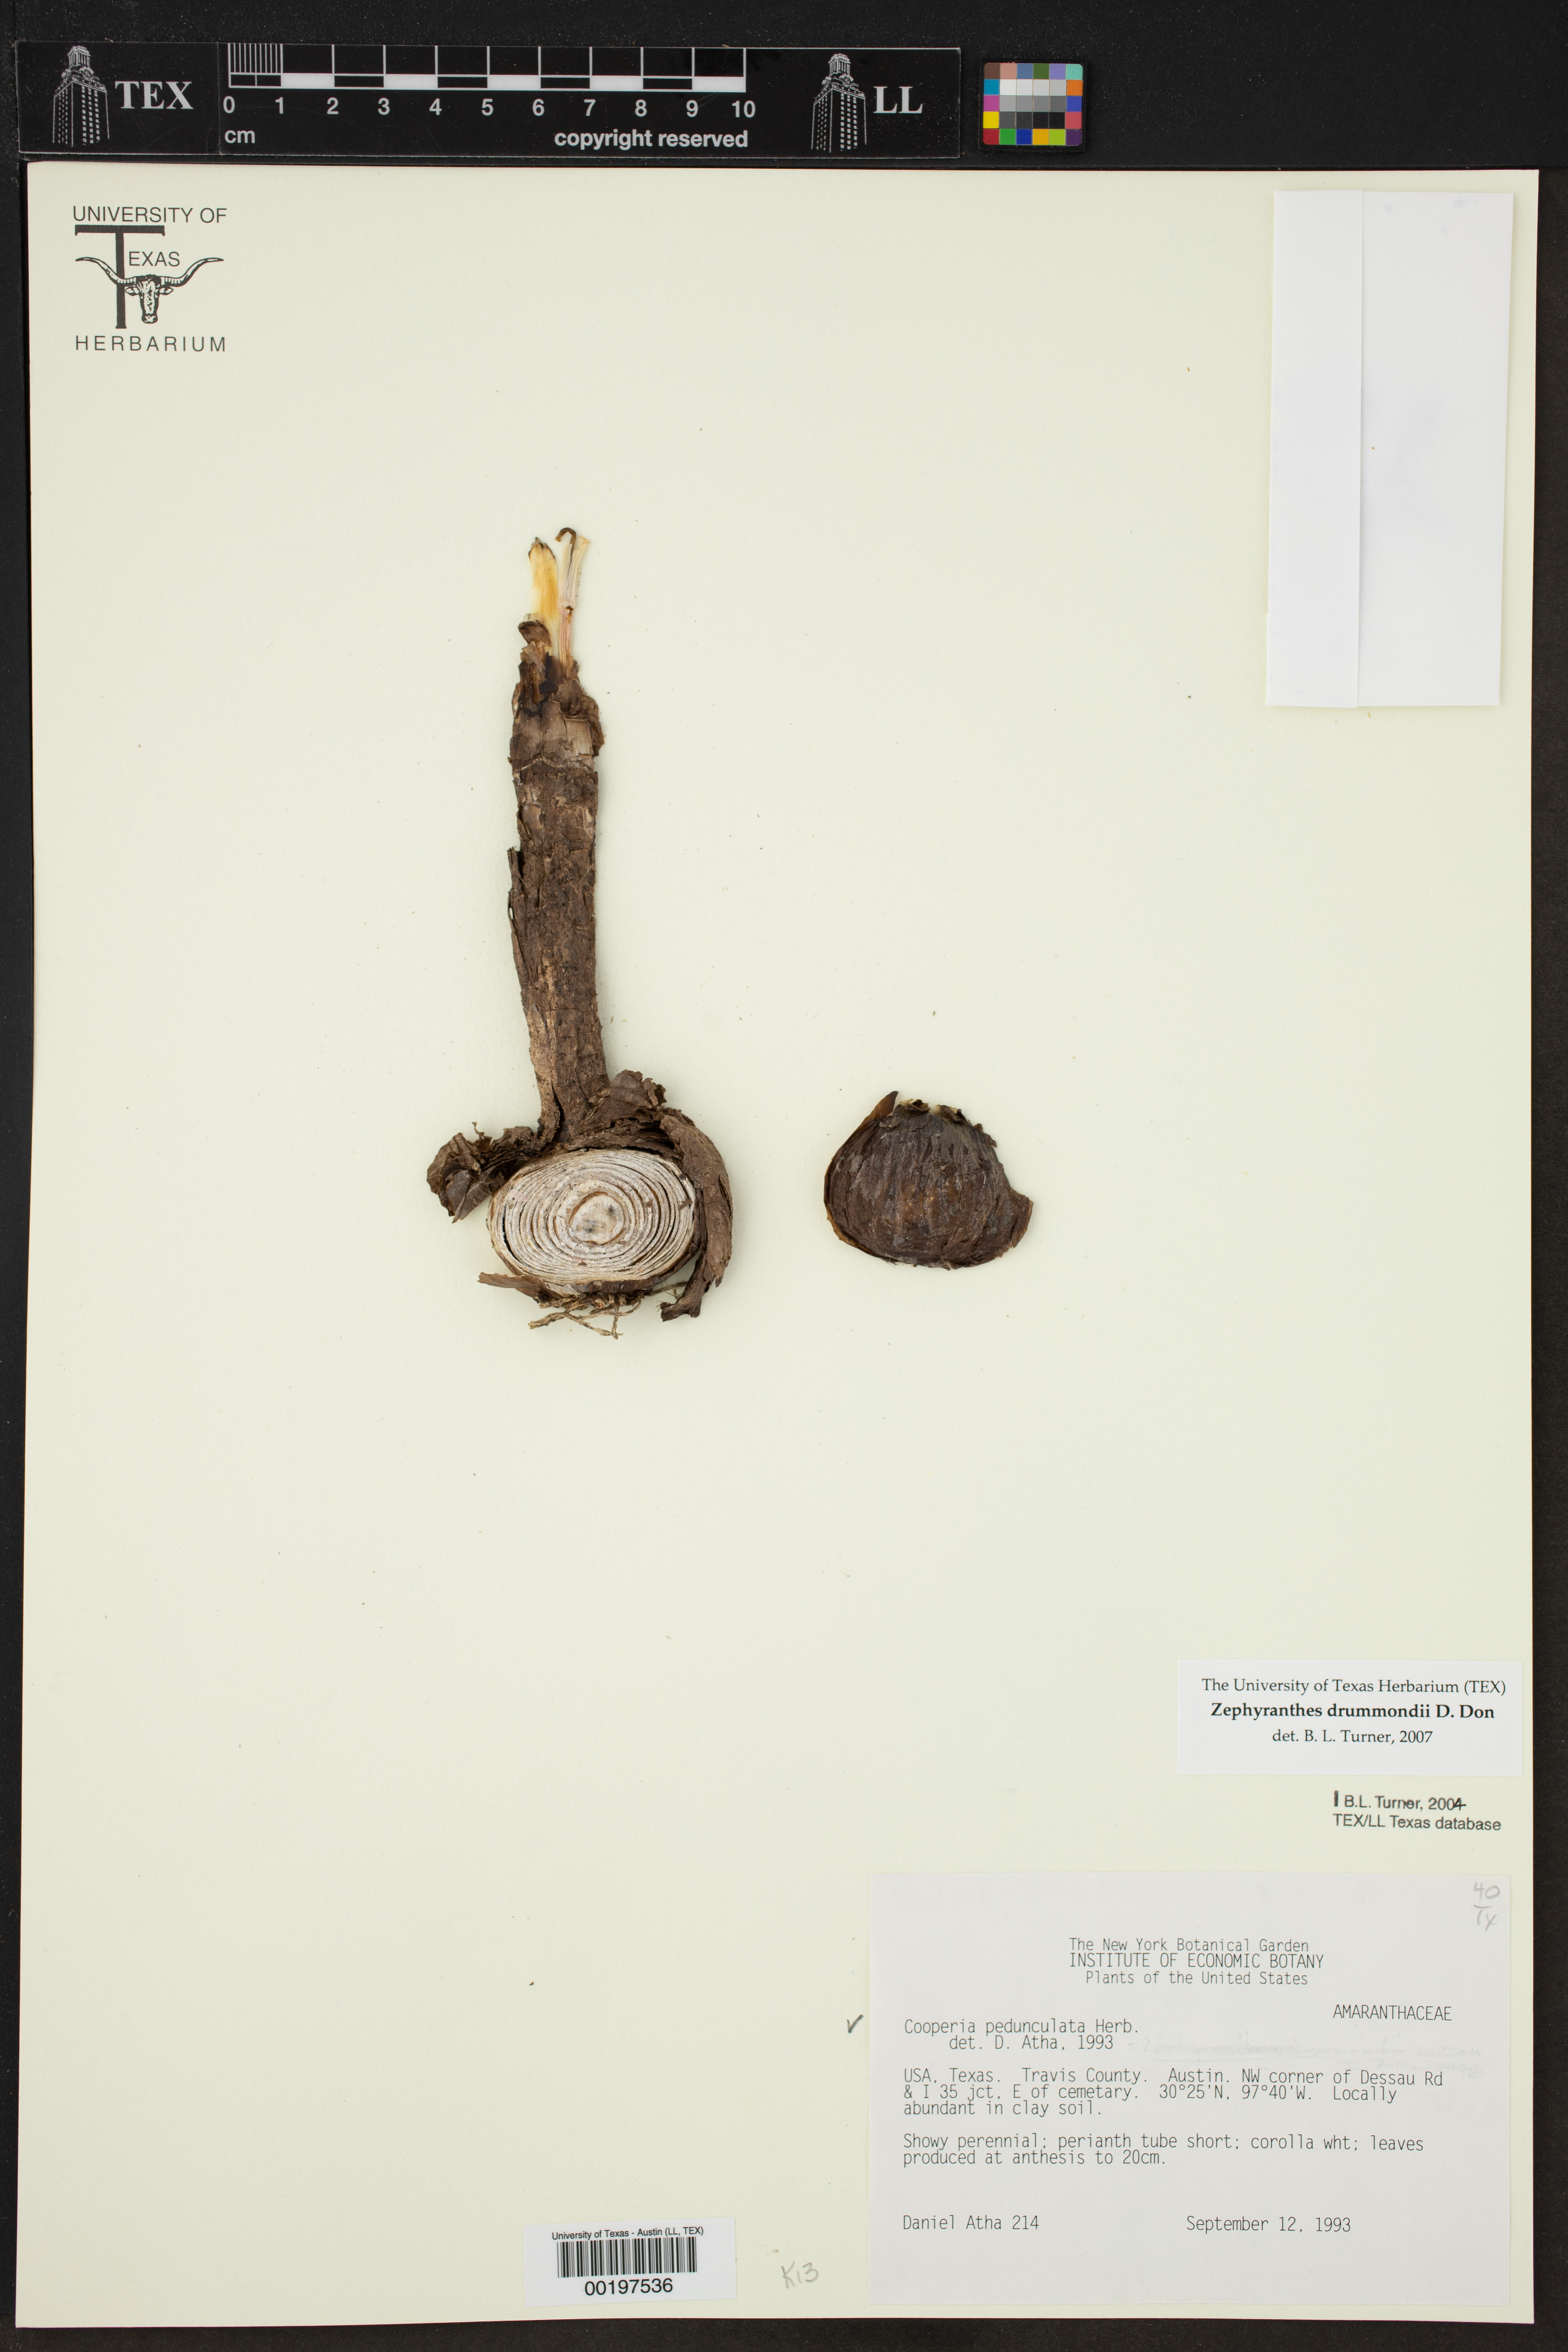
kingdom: Plantae
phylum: Tracheophyta
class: Liliopsida
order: Asparagales
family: Amaryllidaceae
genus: Zephyranthes
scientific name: Zephyranthes drummondii
